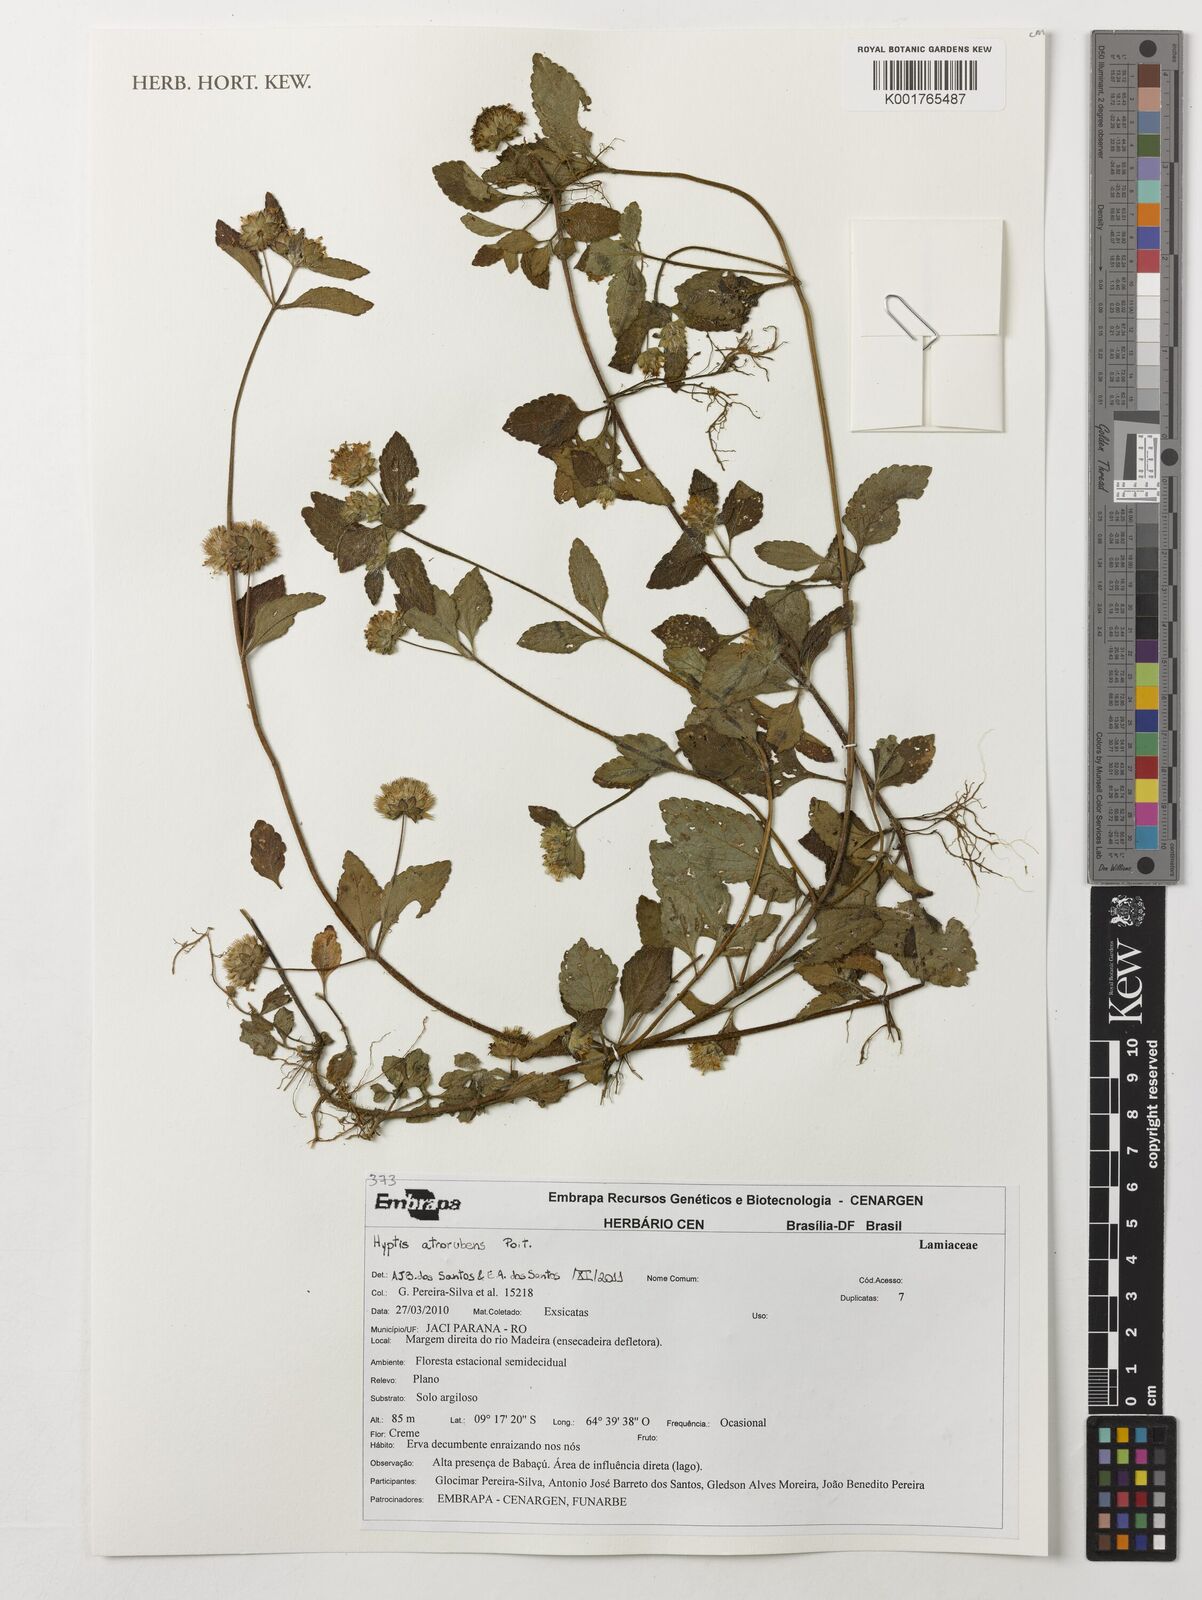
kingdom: Plantae
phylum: Tracheophyta
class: Magnoliopsida
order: Lamiales
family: Lamiaceae
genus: Hyptis
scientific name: Hyptis atrorubens
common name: Lanmant
